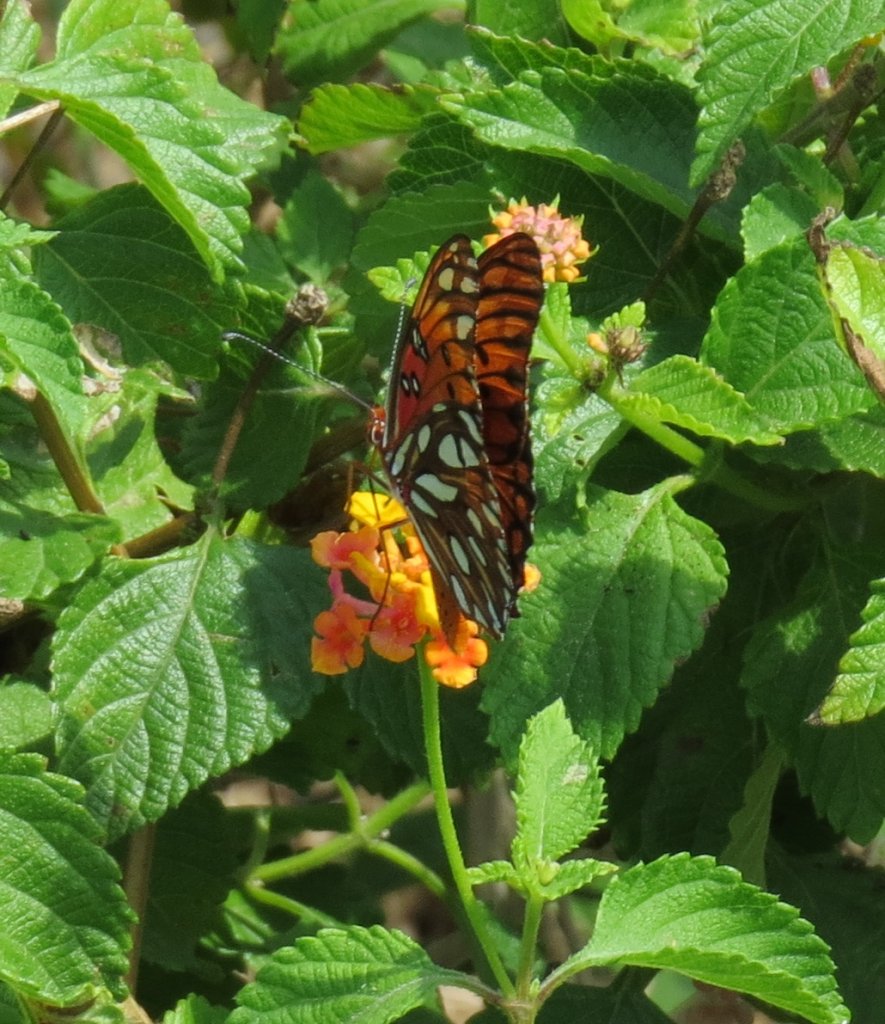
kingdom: Animalia
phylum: Arthropoda
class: Insecta
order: Lepidoptera
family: Nymphalidae
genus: Dione
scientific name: Dione vanillae
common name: Gulf Fritillary
